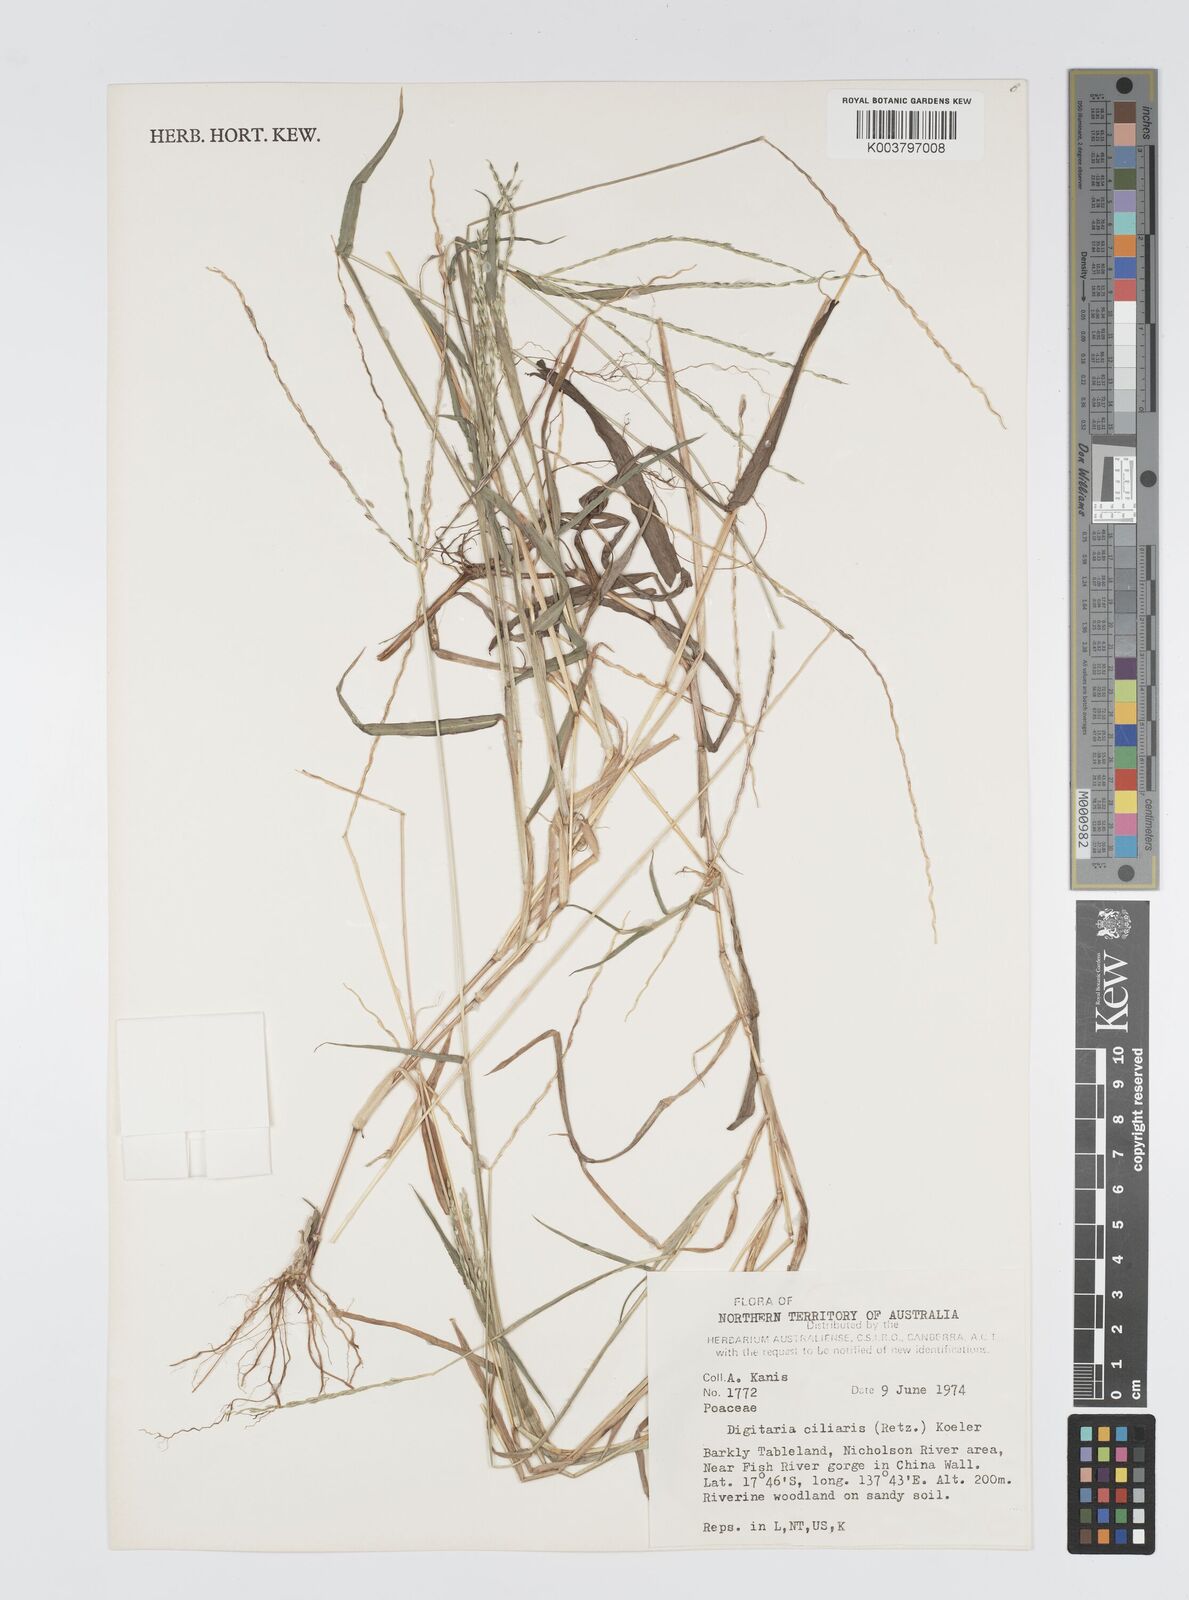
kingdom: Plantae
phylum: Tracheophyta
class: Liliopsida
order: Poales
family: Poaceae
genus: Digitaria
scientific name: Digitaria ciliaris
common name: Tropical finger-grass
